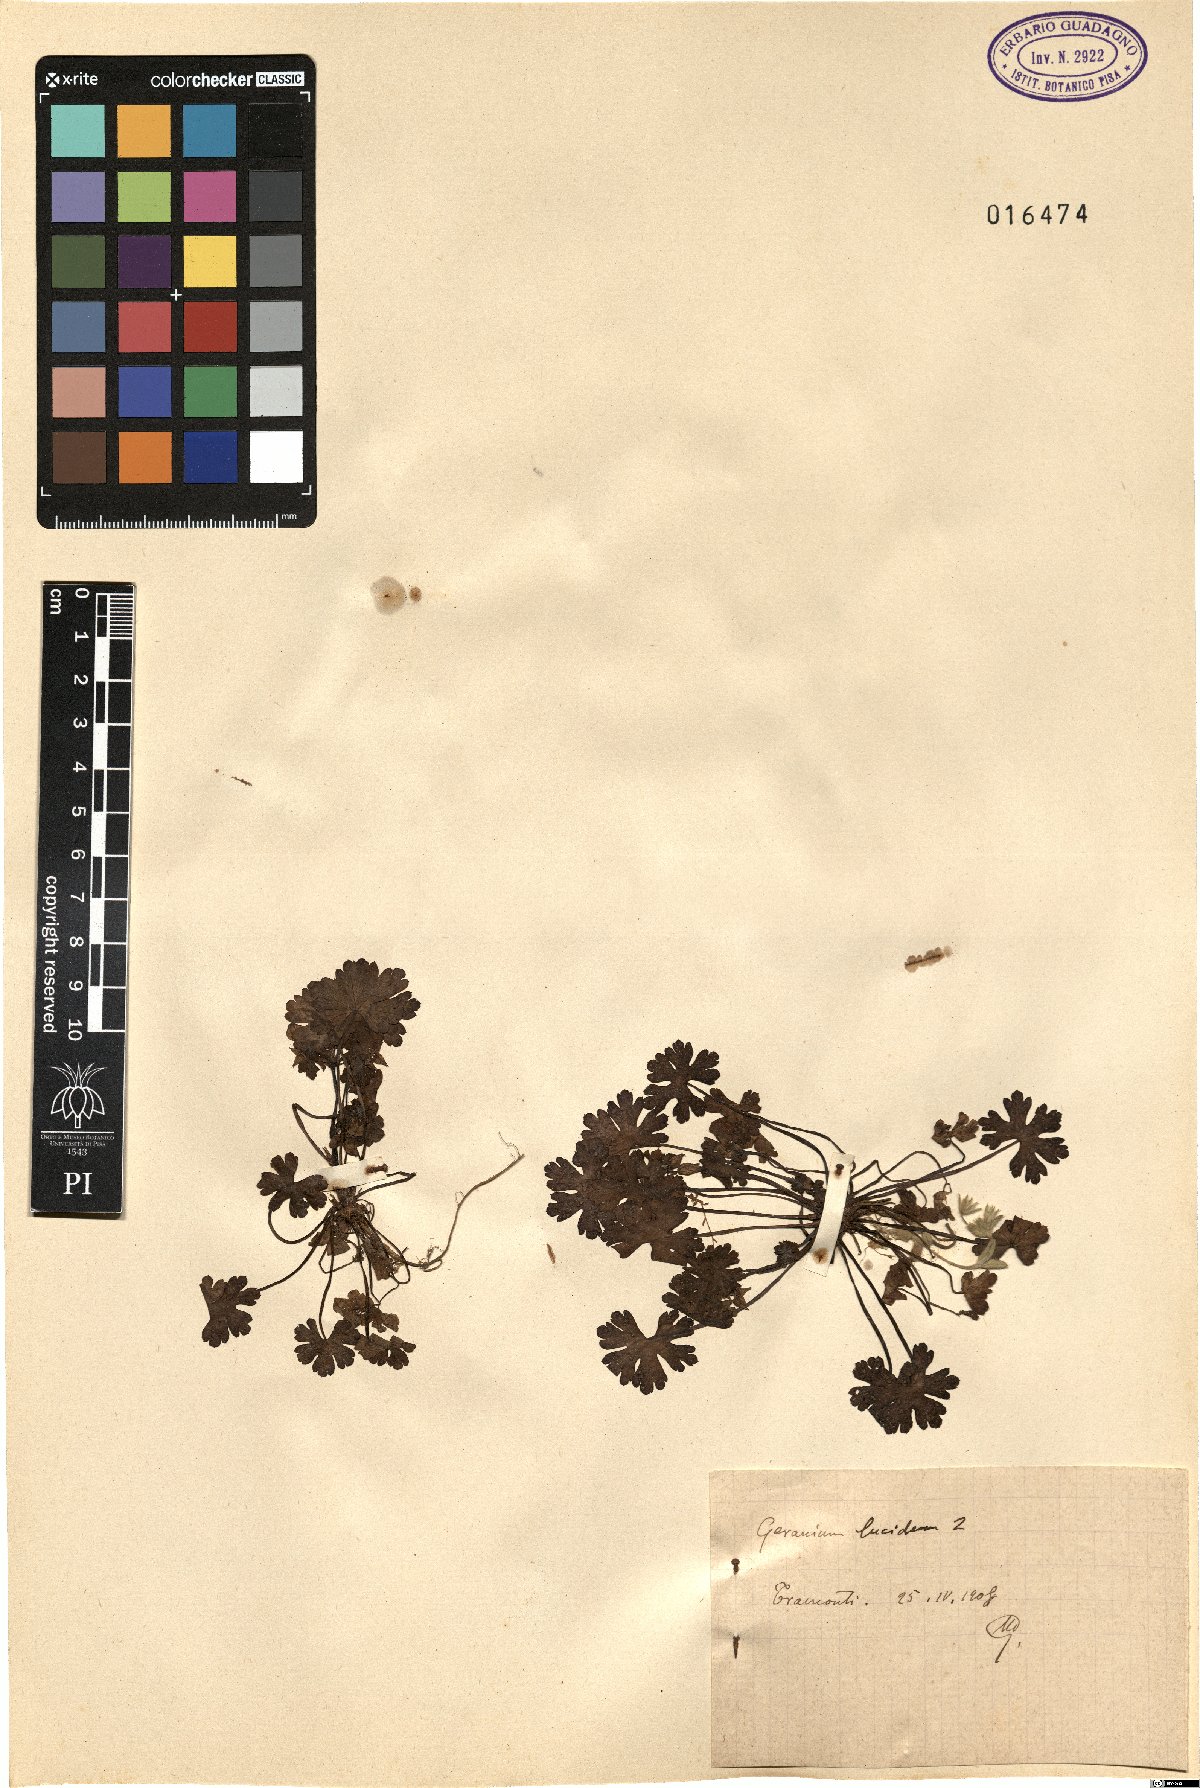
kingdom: Plantae
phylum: Tracheophyta
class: Magnoliopsida
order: Geraniales
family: Geraniaceae
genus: Geranium
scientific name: Geranium lucidum
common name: Shining crane's-bill
